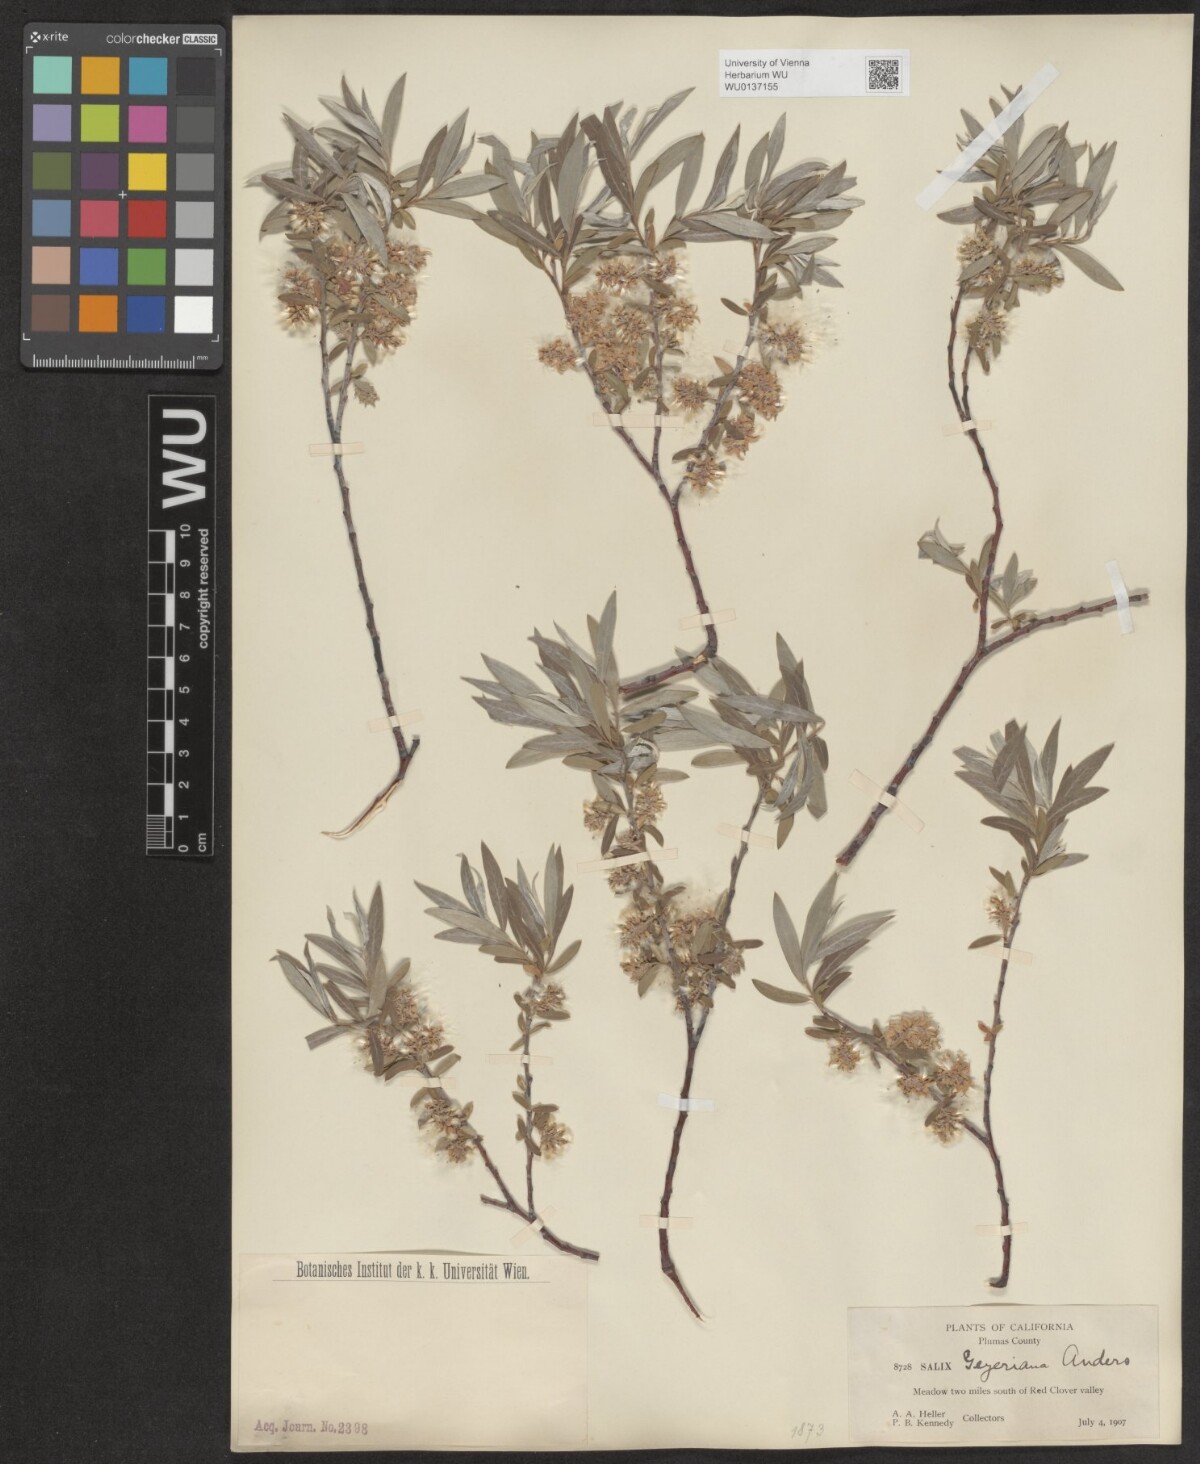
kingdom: Plantae
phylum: Tracheophyta
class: Magnoliopsida
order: Malpighiales
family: Salicaceae
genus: Salix
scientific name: Salix geyeriana
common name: Geyer's willow
